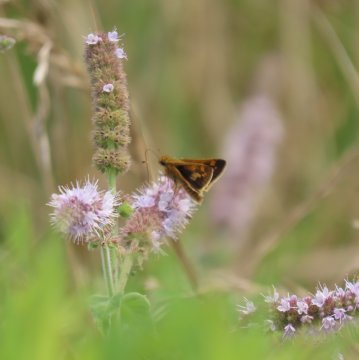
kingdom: Animalia
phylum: Arthropoda
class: Insecta
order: Lepidoptera
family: Hesperiidae
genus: Polites
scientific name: Polites coras
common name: Peck's Skipper
